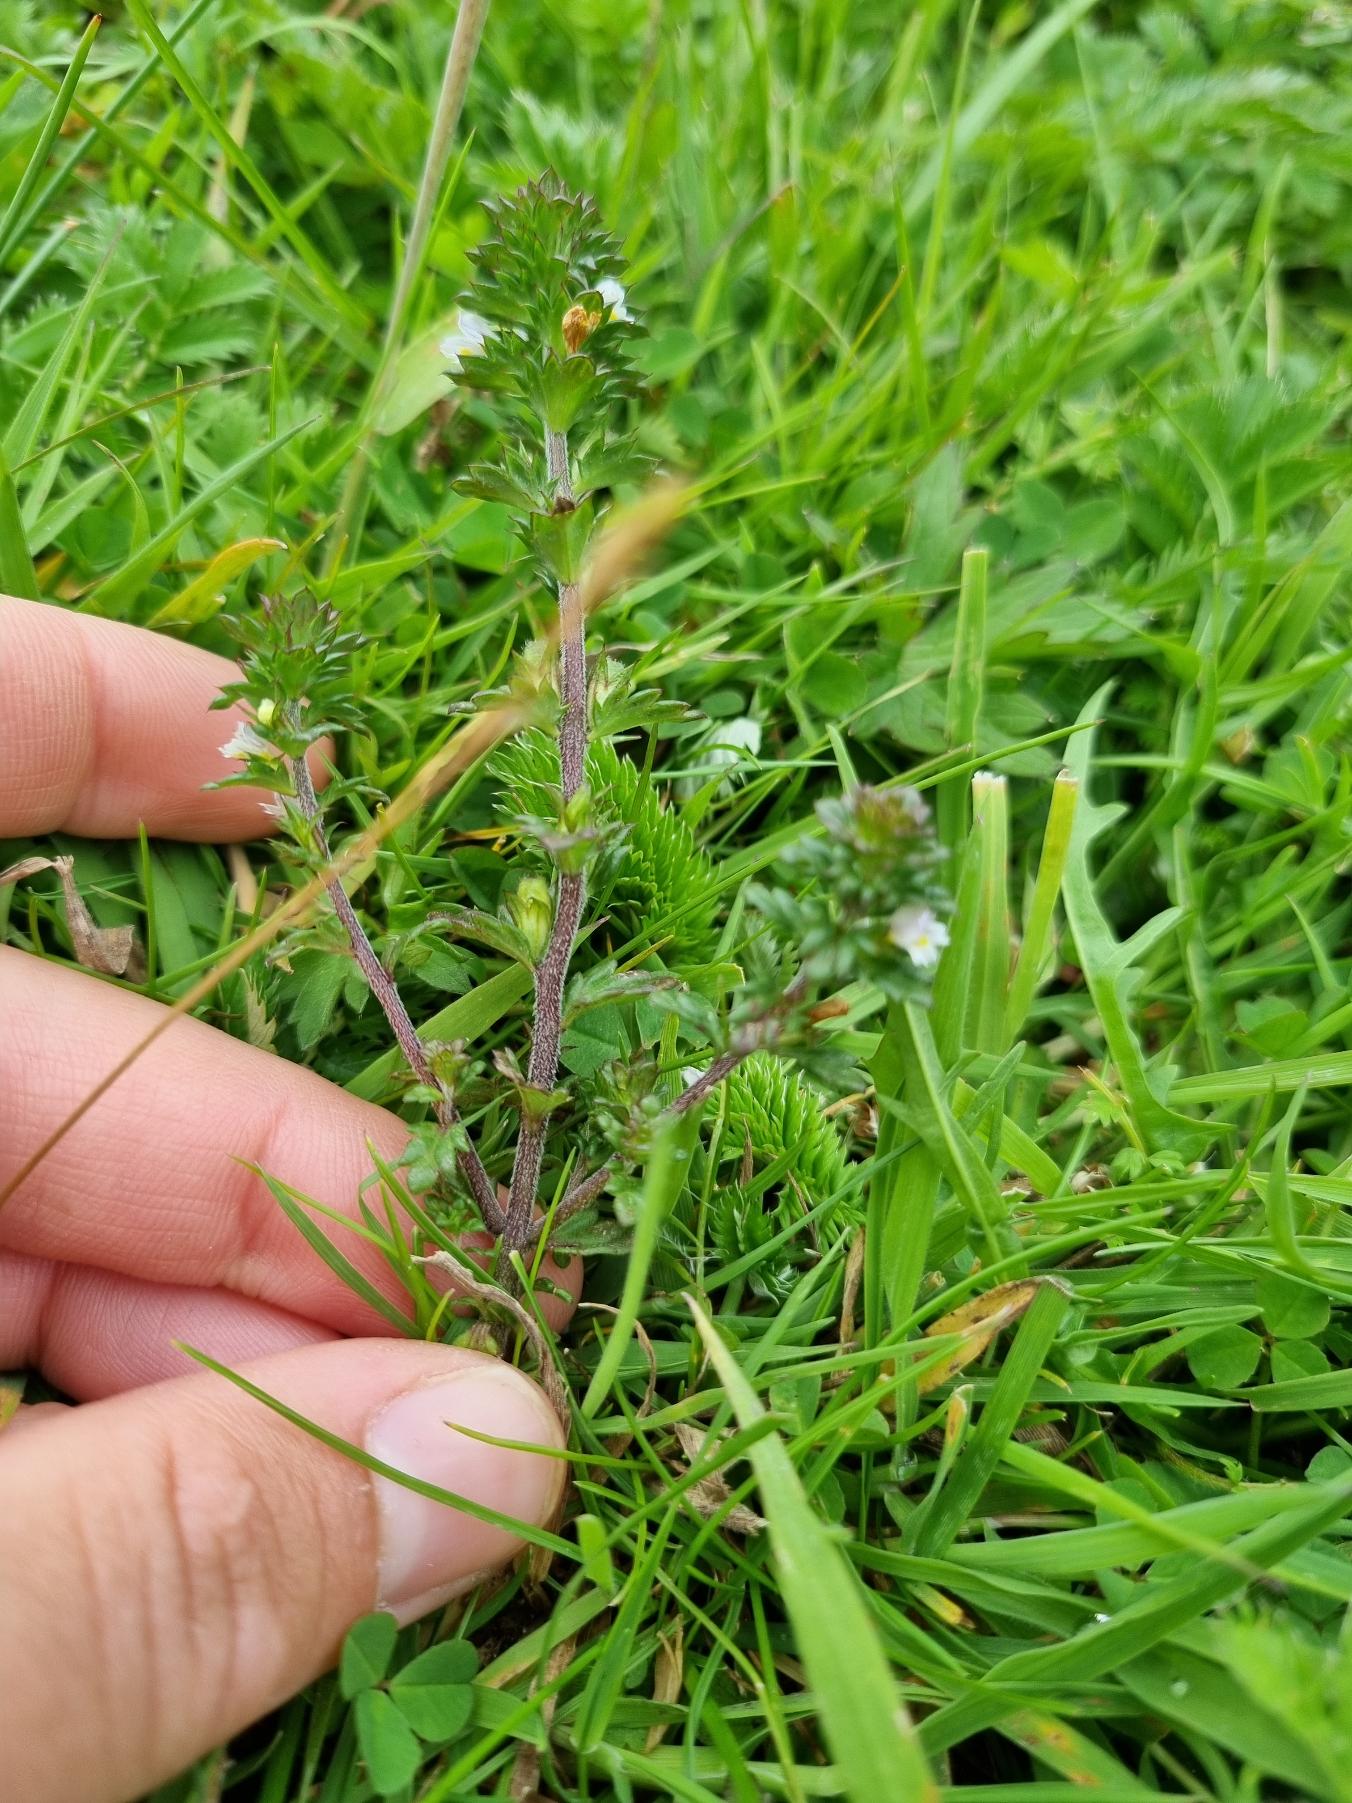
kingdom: Plantae
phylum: Tracheophyta
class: Magnoliopsida
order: Lamiales
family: Orobanchaceae
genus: Euphrasia
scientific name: Euphrasia stricta
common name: Spids øjentrøst
